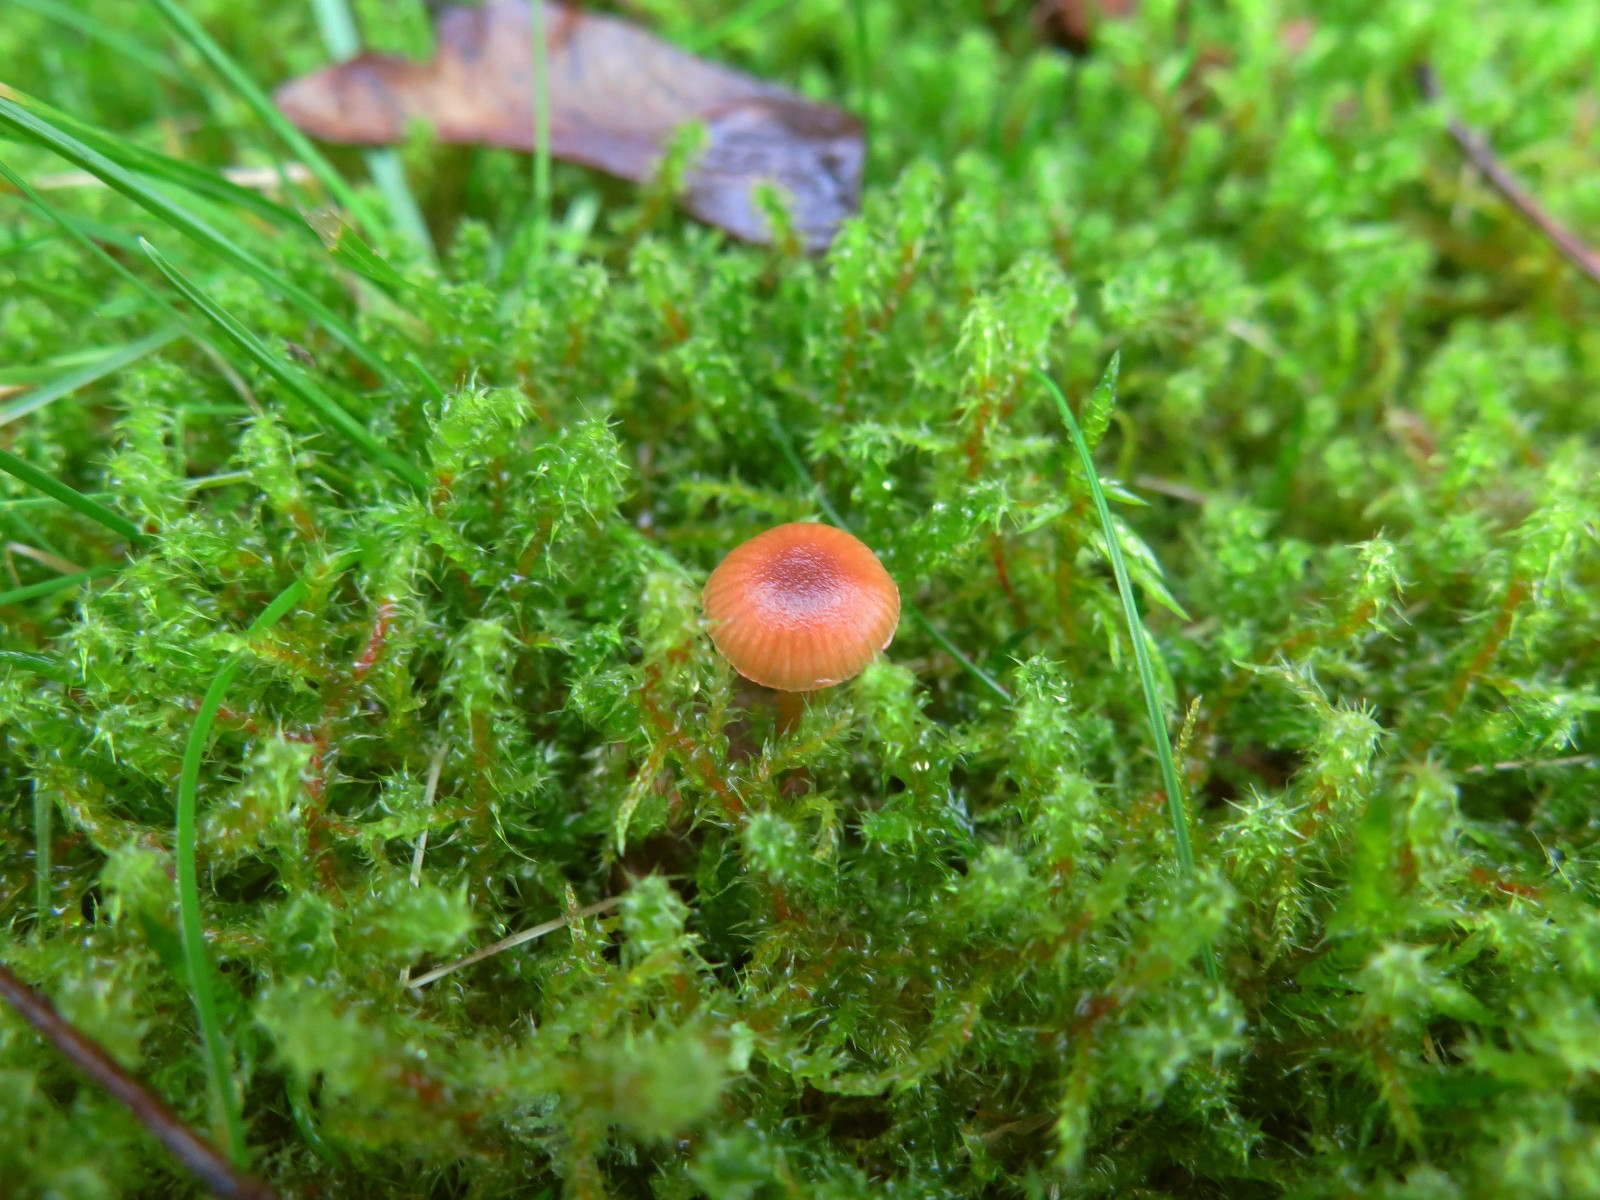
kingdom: Fungi
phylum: Basidiomycota
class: Agaricomycetes
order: Agaricales
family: Tubariaceae
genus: Tubaria
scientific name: Tubaria furfuracea
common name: kliddet fnughat
